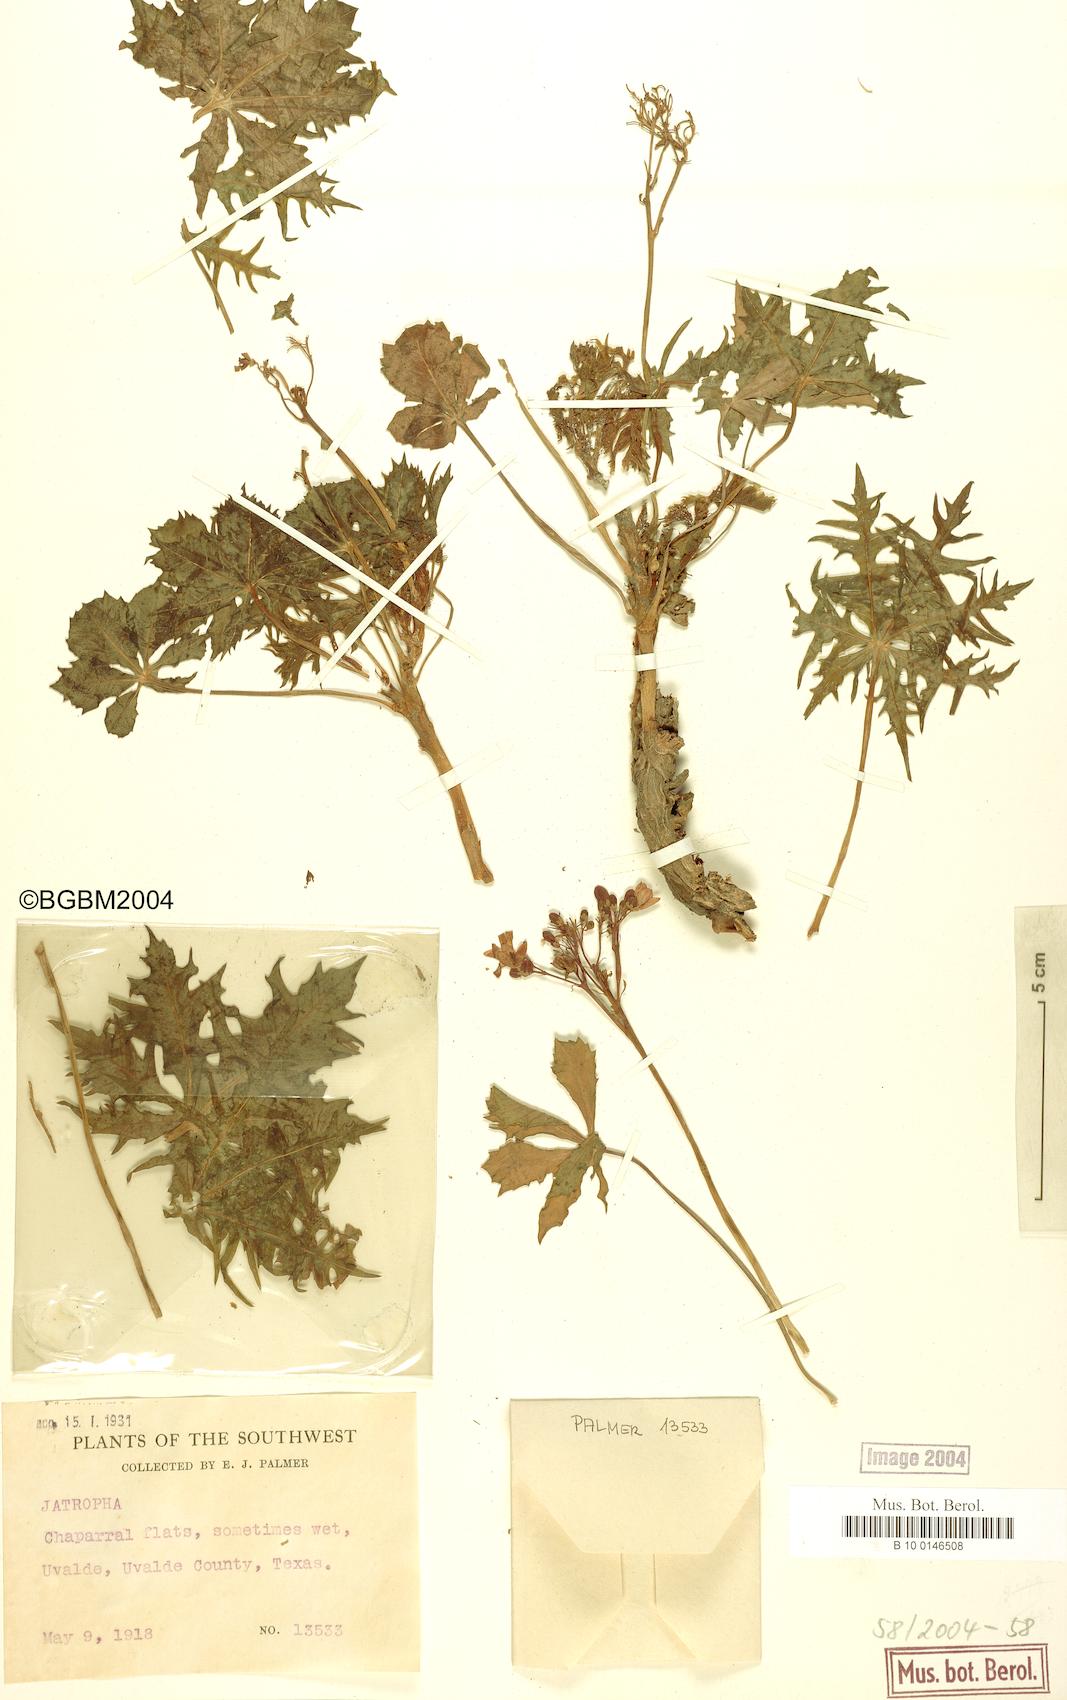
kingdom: Plantae
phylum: Tracheophyta
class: Magnoliopsida
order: Malpighiales
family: Euphorbiaceae
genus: Jatropha
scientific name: Jatropha
